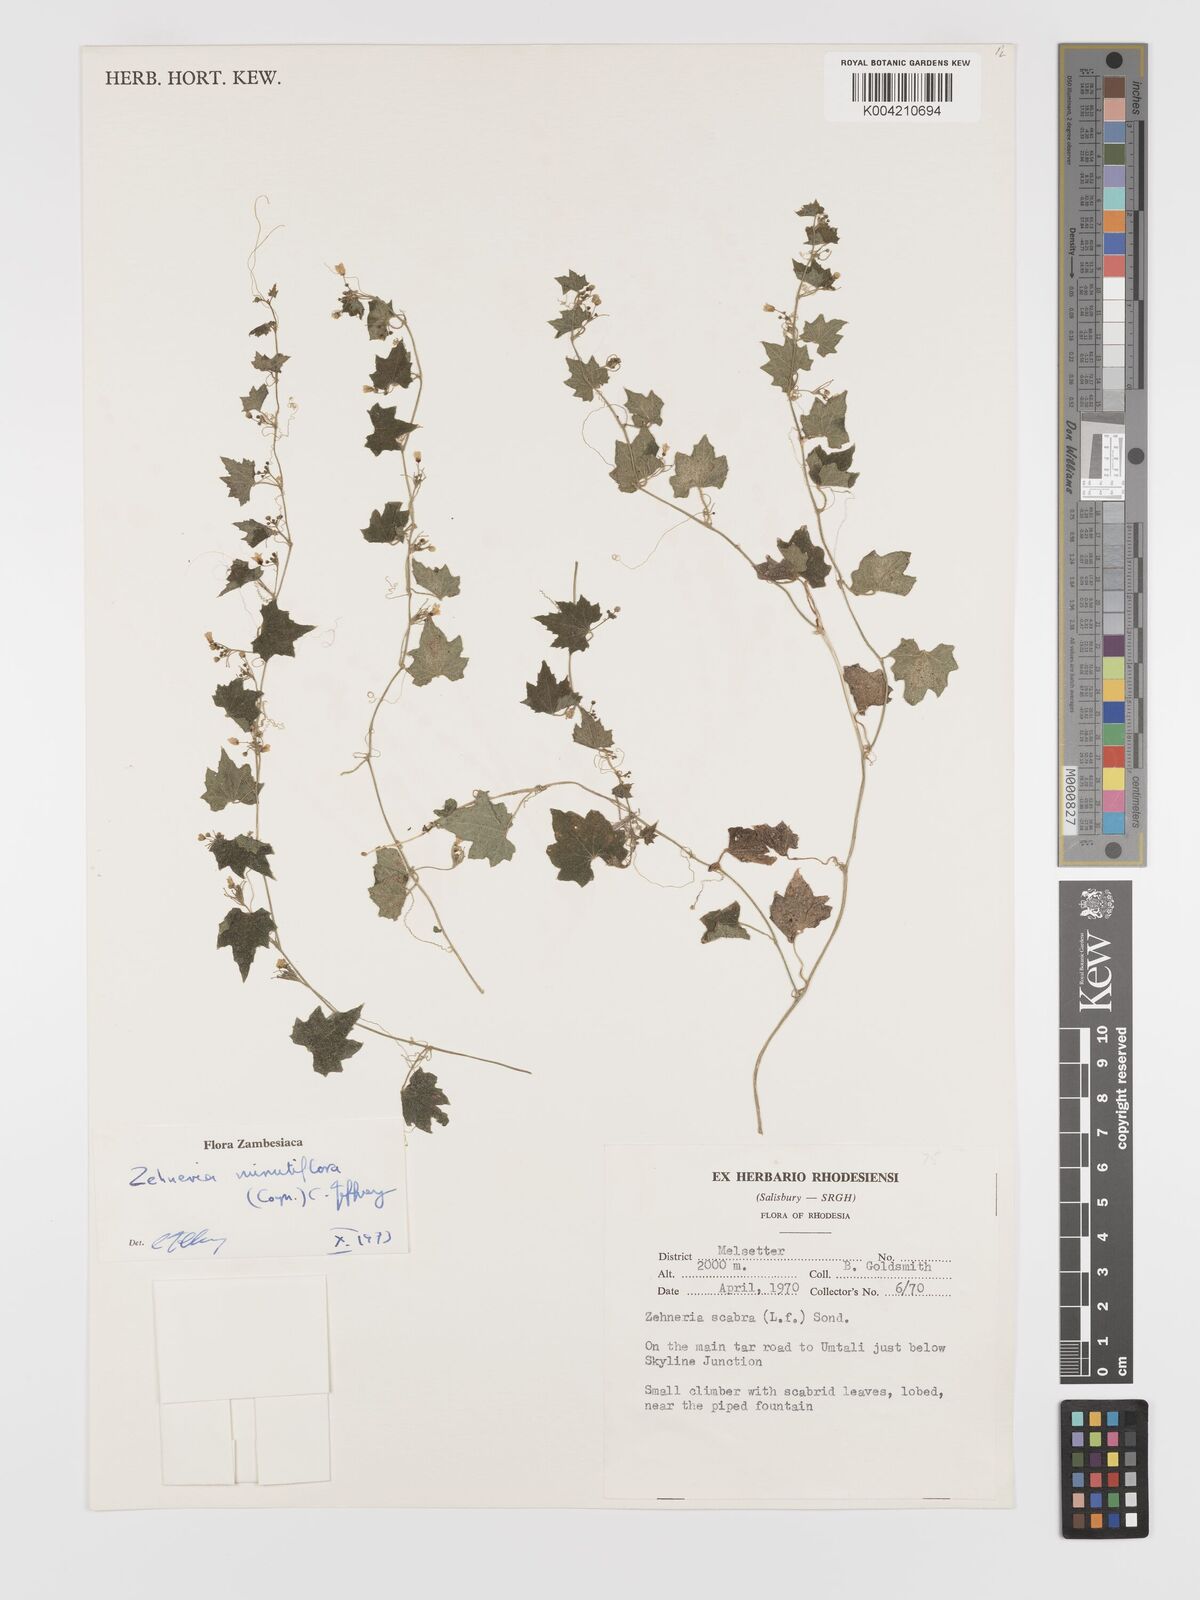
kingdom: Plantae
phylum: Tracheophyta
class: Magnoliopsida
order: Cucurbitales
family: Cucurbitaceae
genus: Zehneria
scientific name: Zehneria minutiflora
